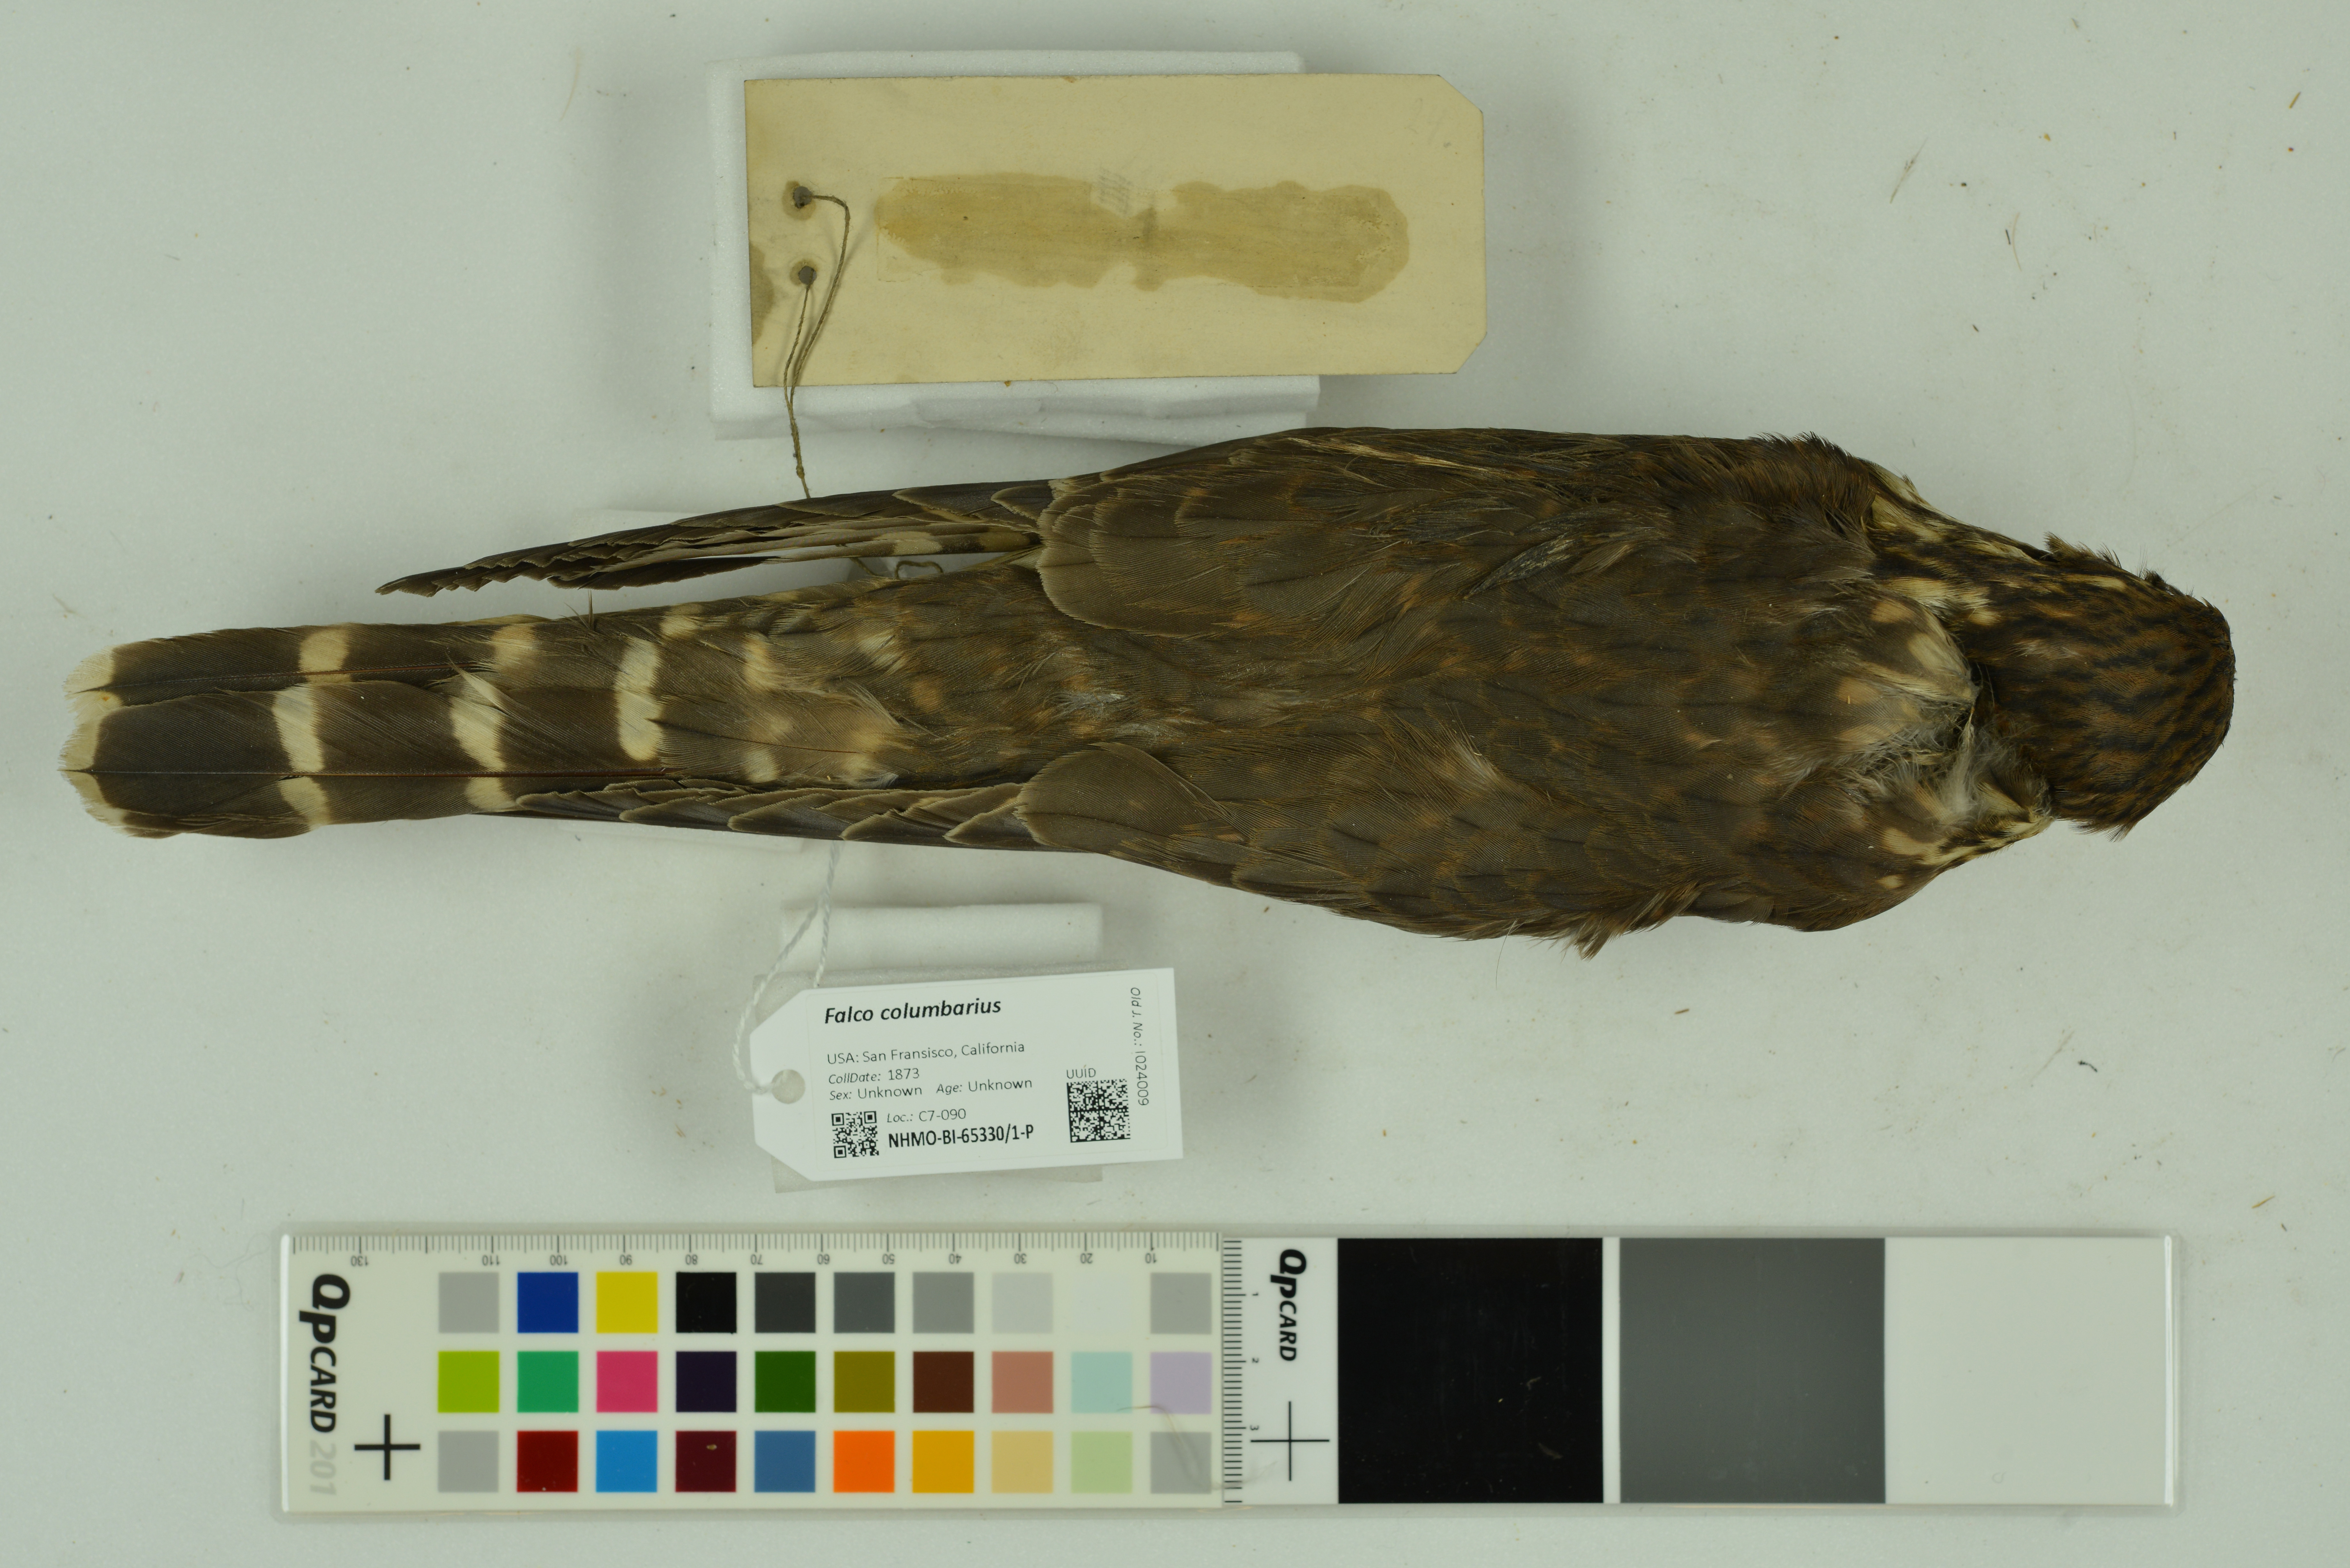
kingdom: Animalia
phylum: Chordata
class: Aves
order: Falconiformes
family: Falconidae
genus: Falco
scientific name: Falco columbarius
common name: Merlin
